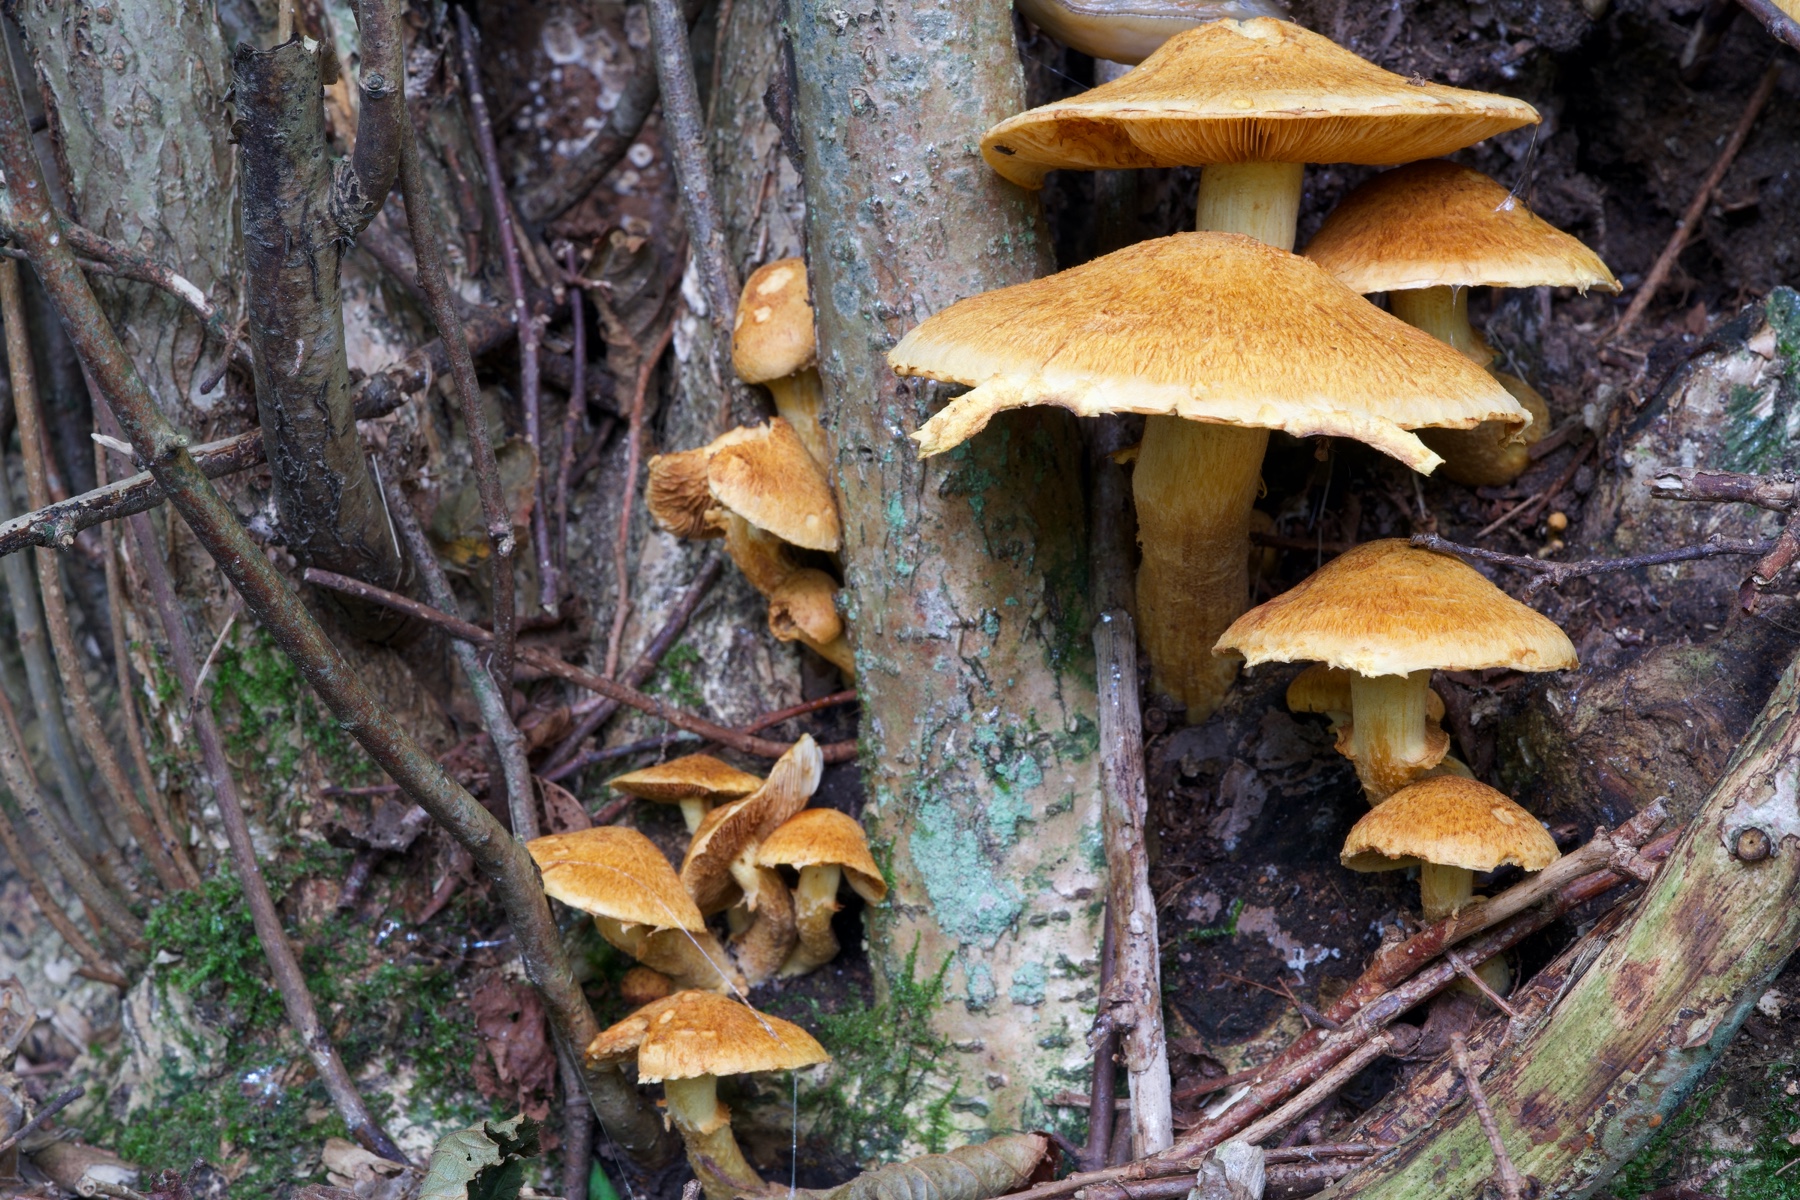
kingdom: Fungi
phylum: Basidiomycota
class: Agaricomycetes
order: Agaricales
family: Hymenogastraceae
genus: Gymnopilus
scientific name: Gymnopilus spectabilis
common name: fibret flammehat
